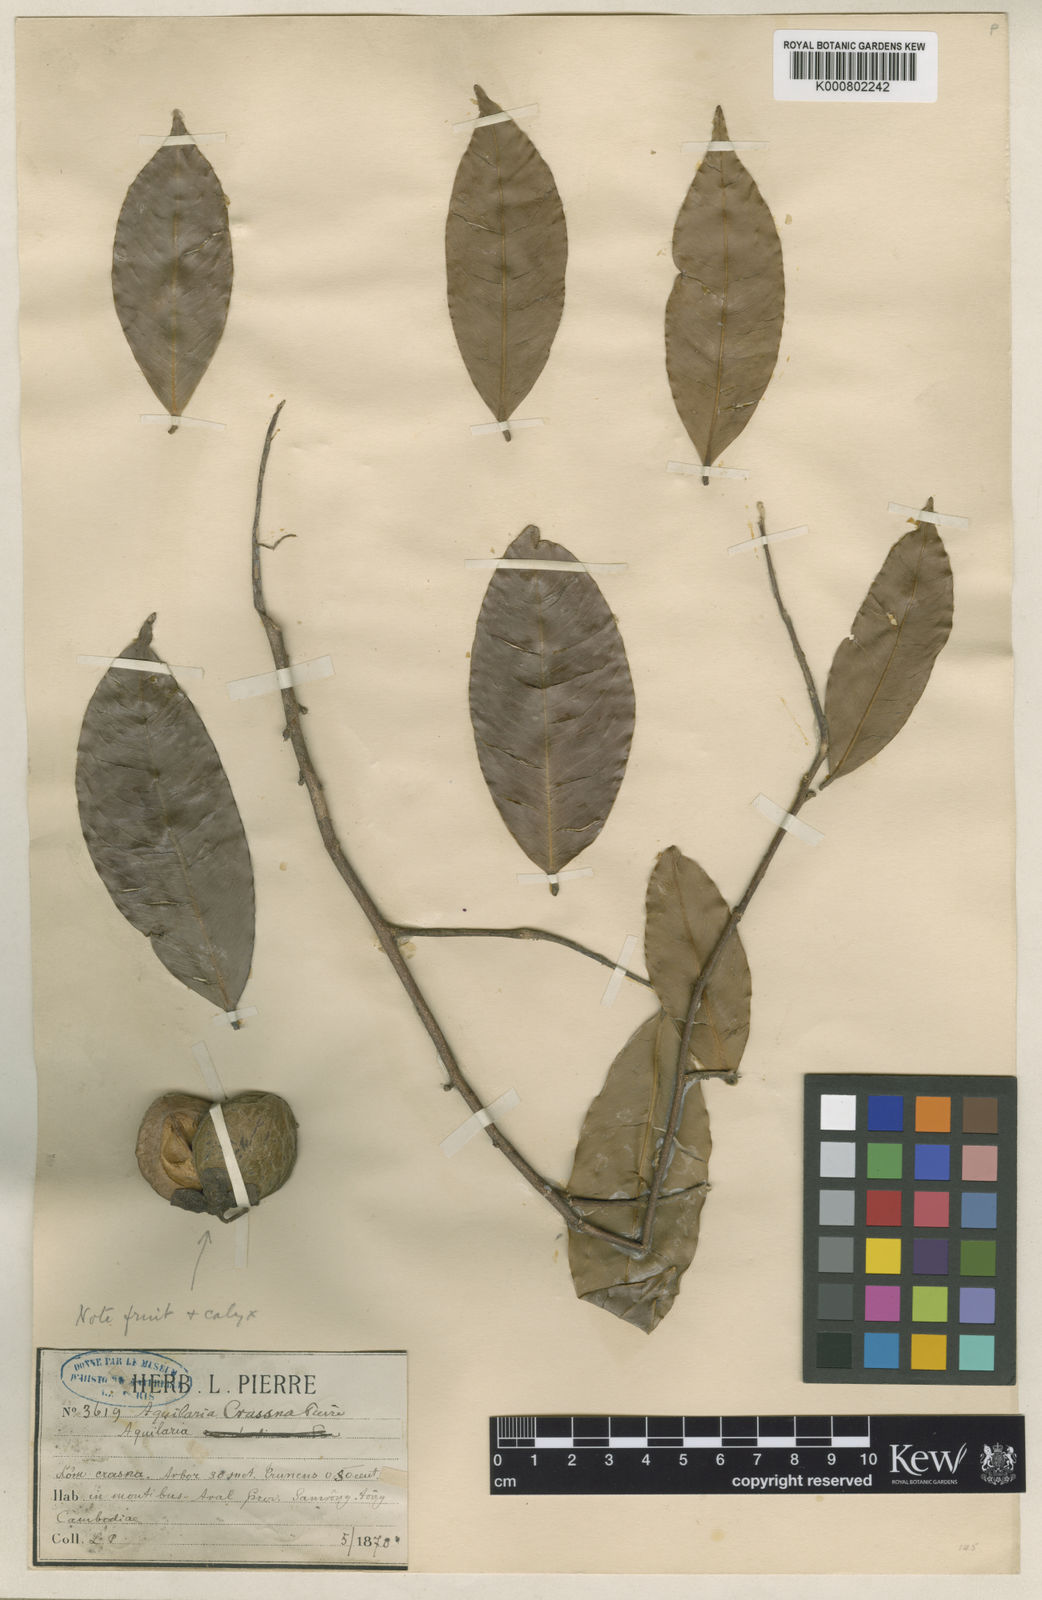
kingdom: Plantae
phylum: Tracheophyta
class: Magnoliopsida
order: Malvales
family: Thymelaeaceae
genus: Aquilaria
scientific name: Aquilaria crassna
